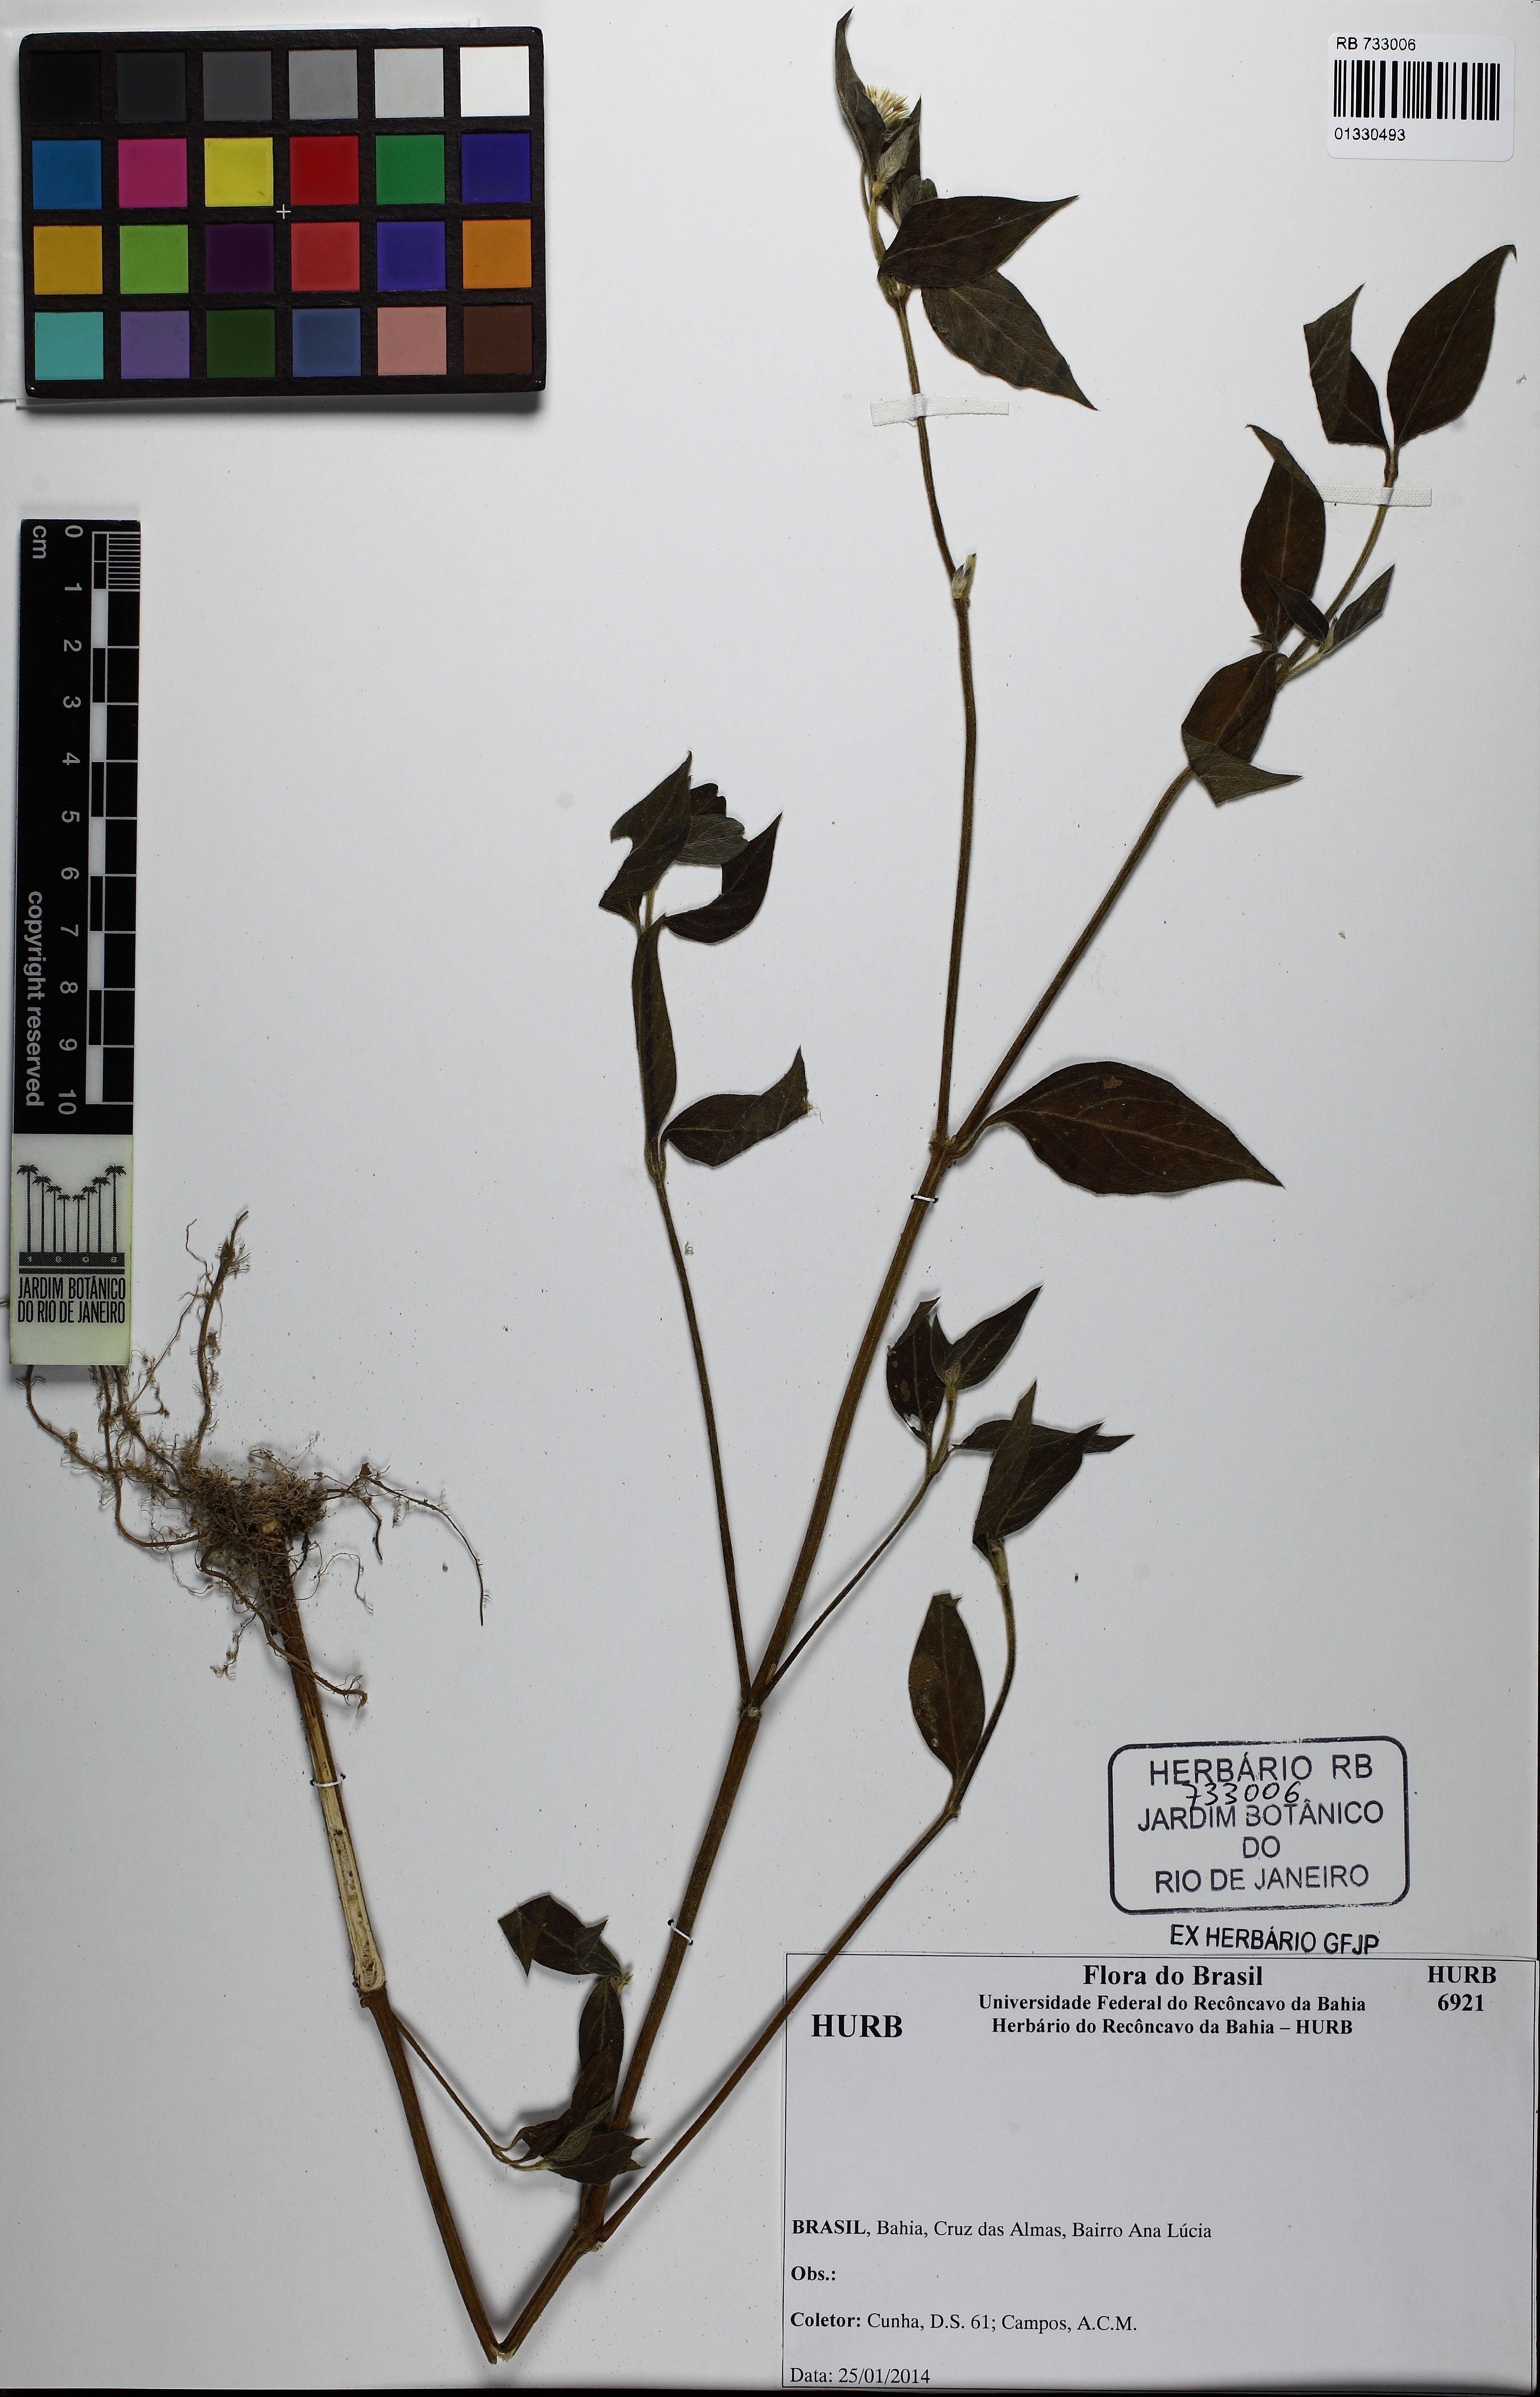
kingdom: Plantae
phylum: Tracheophyta
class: Magnoliopsida
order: Caryophyllales
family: Amaranthaceae
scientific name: Amaranthaceae
